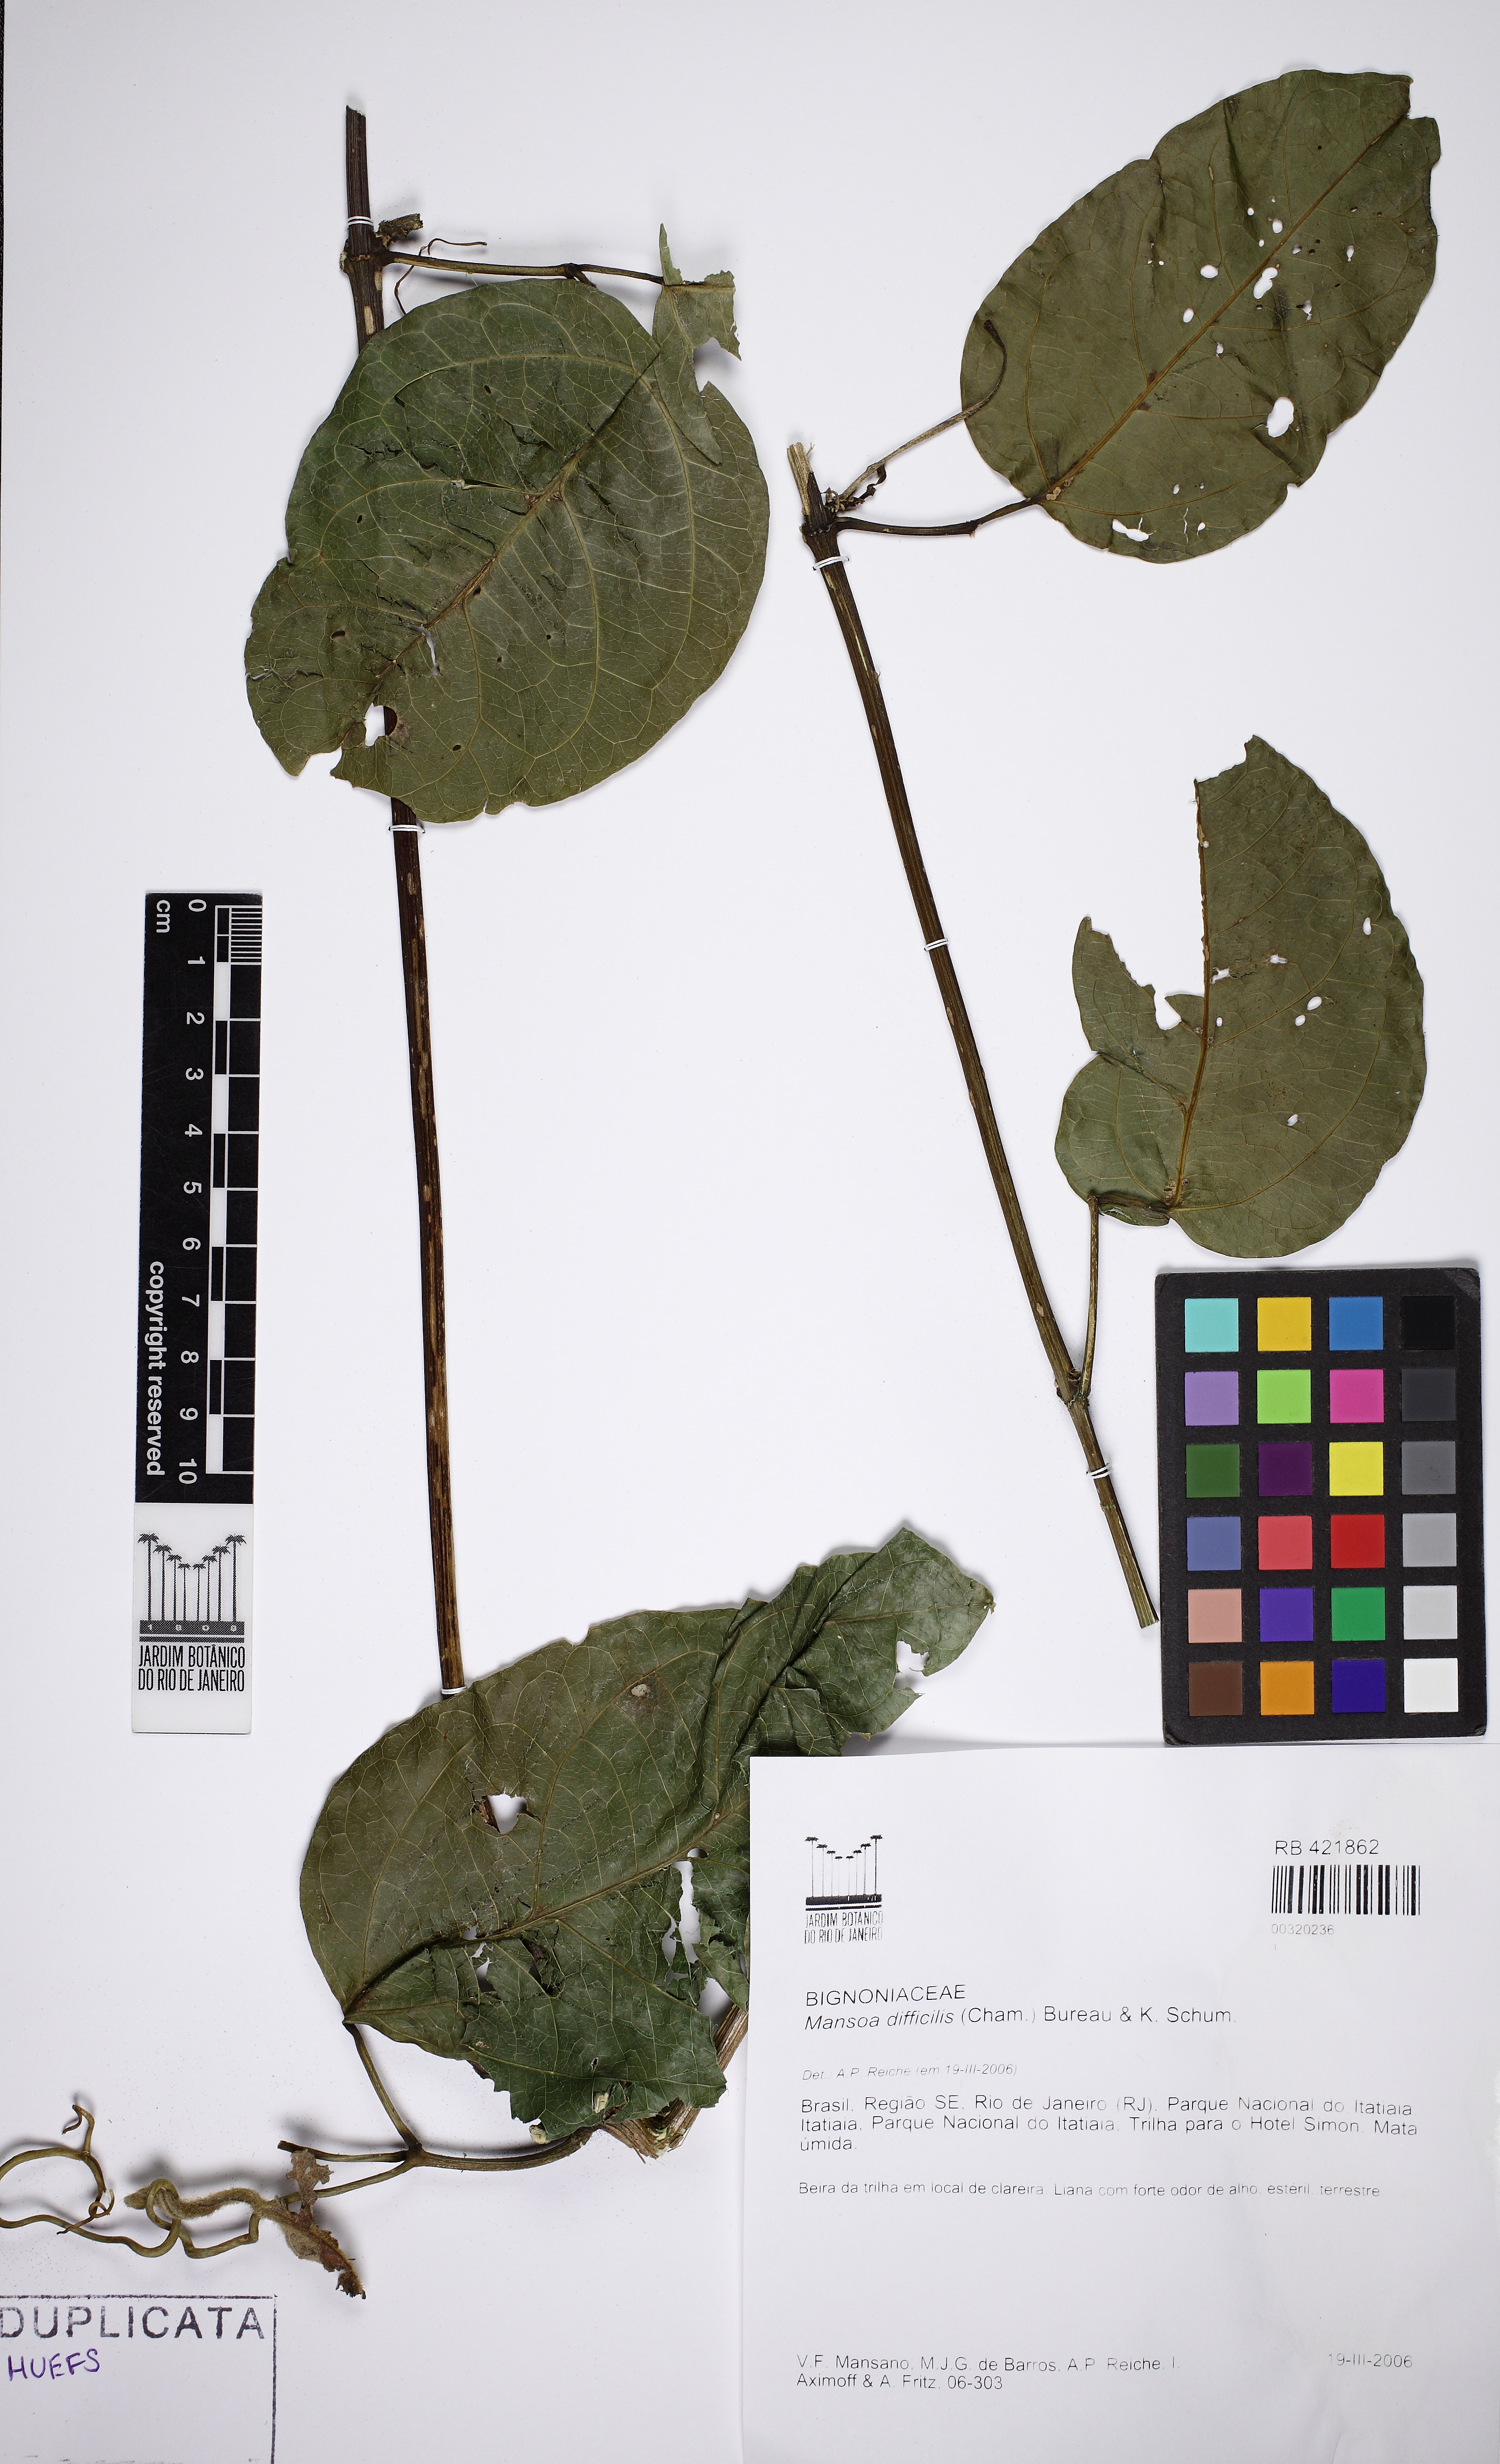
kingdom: Plantae
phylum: Tracheophyta
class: Magnoliopsida
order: Lamiales
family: Bignoniaceae
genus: Mansoa
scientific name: Mansoa difficilis
